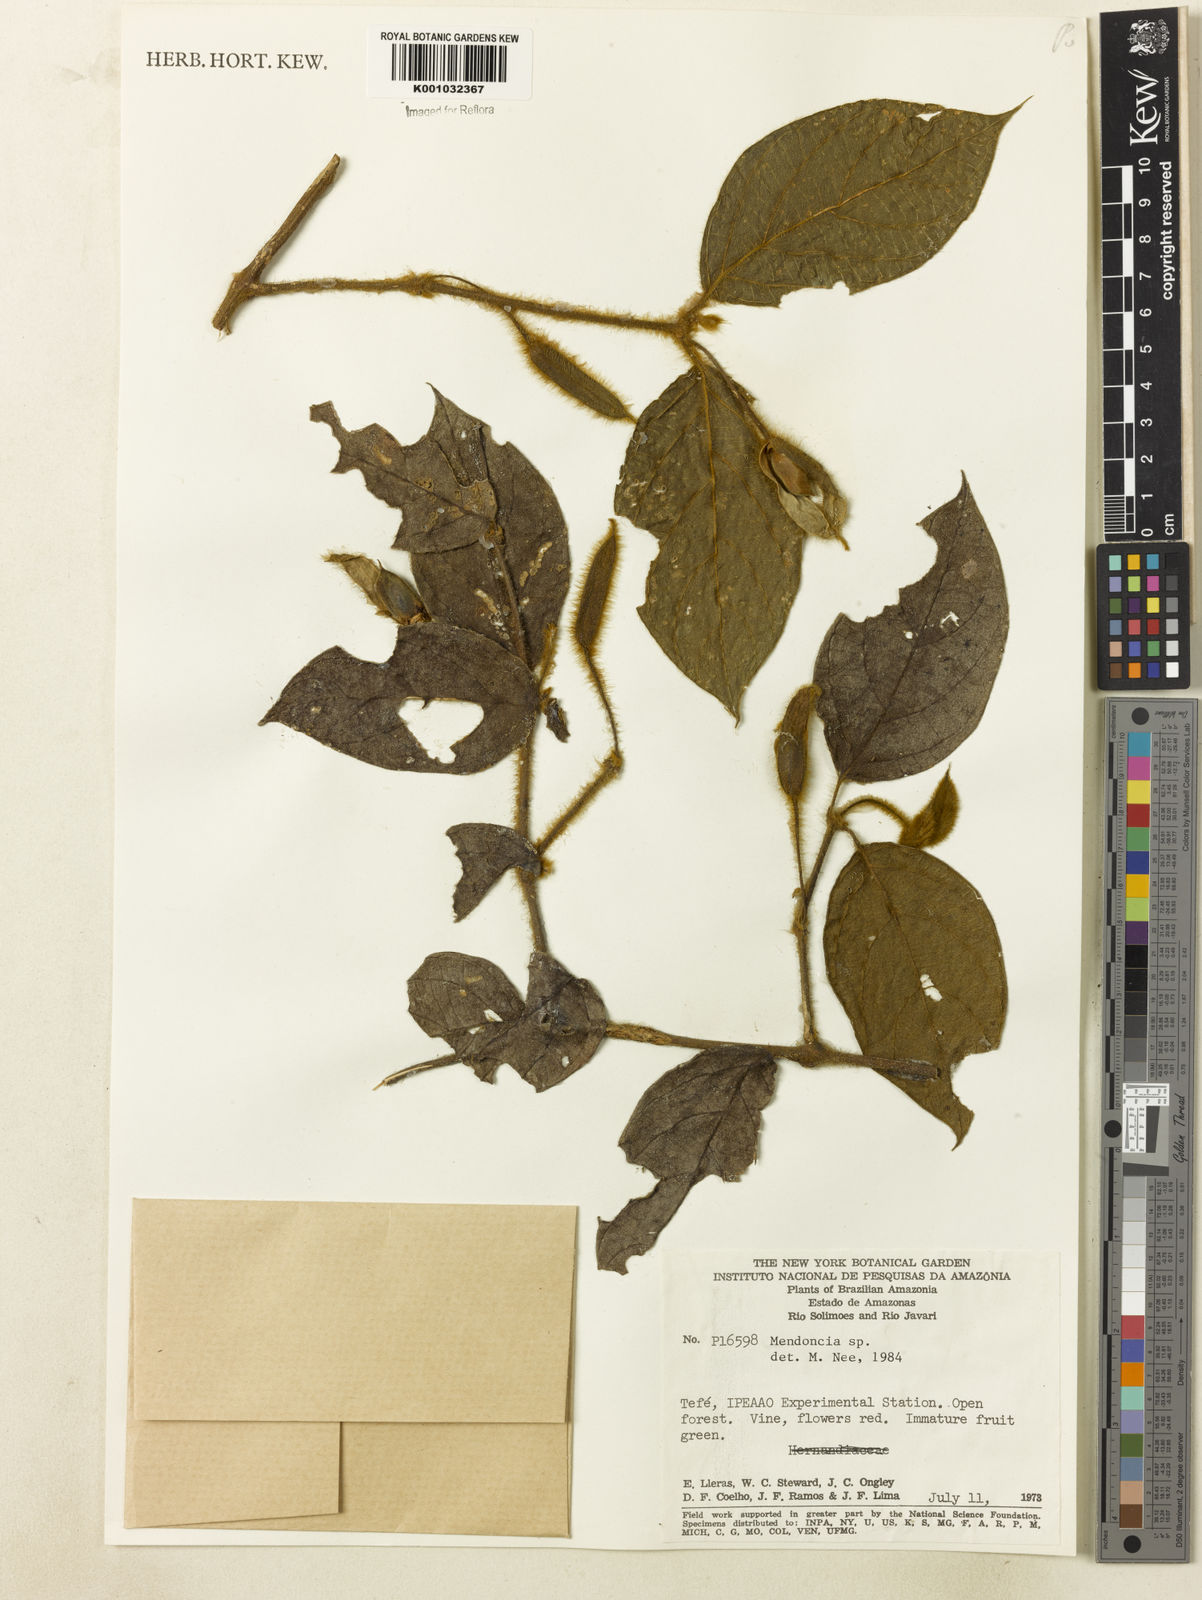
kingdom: Plantae
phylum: Tracheophyta
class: Magnoliopsida
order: Lamiales
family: Acanthaceae
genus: Mendoncia
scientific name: Mendoncia
